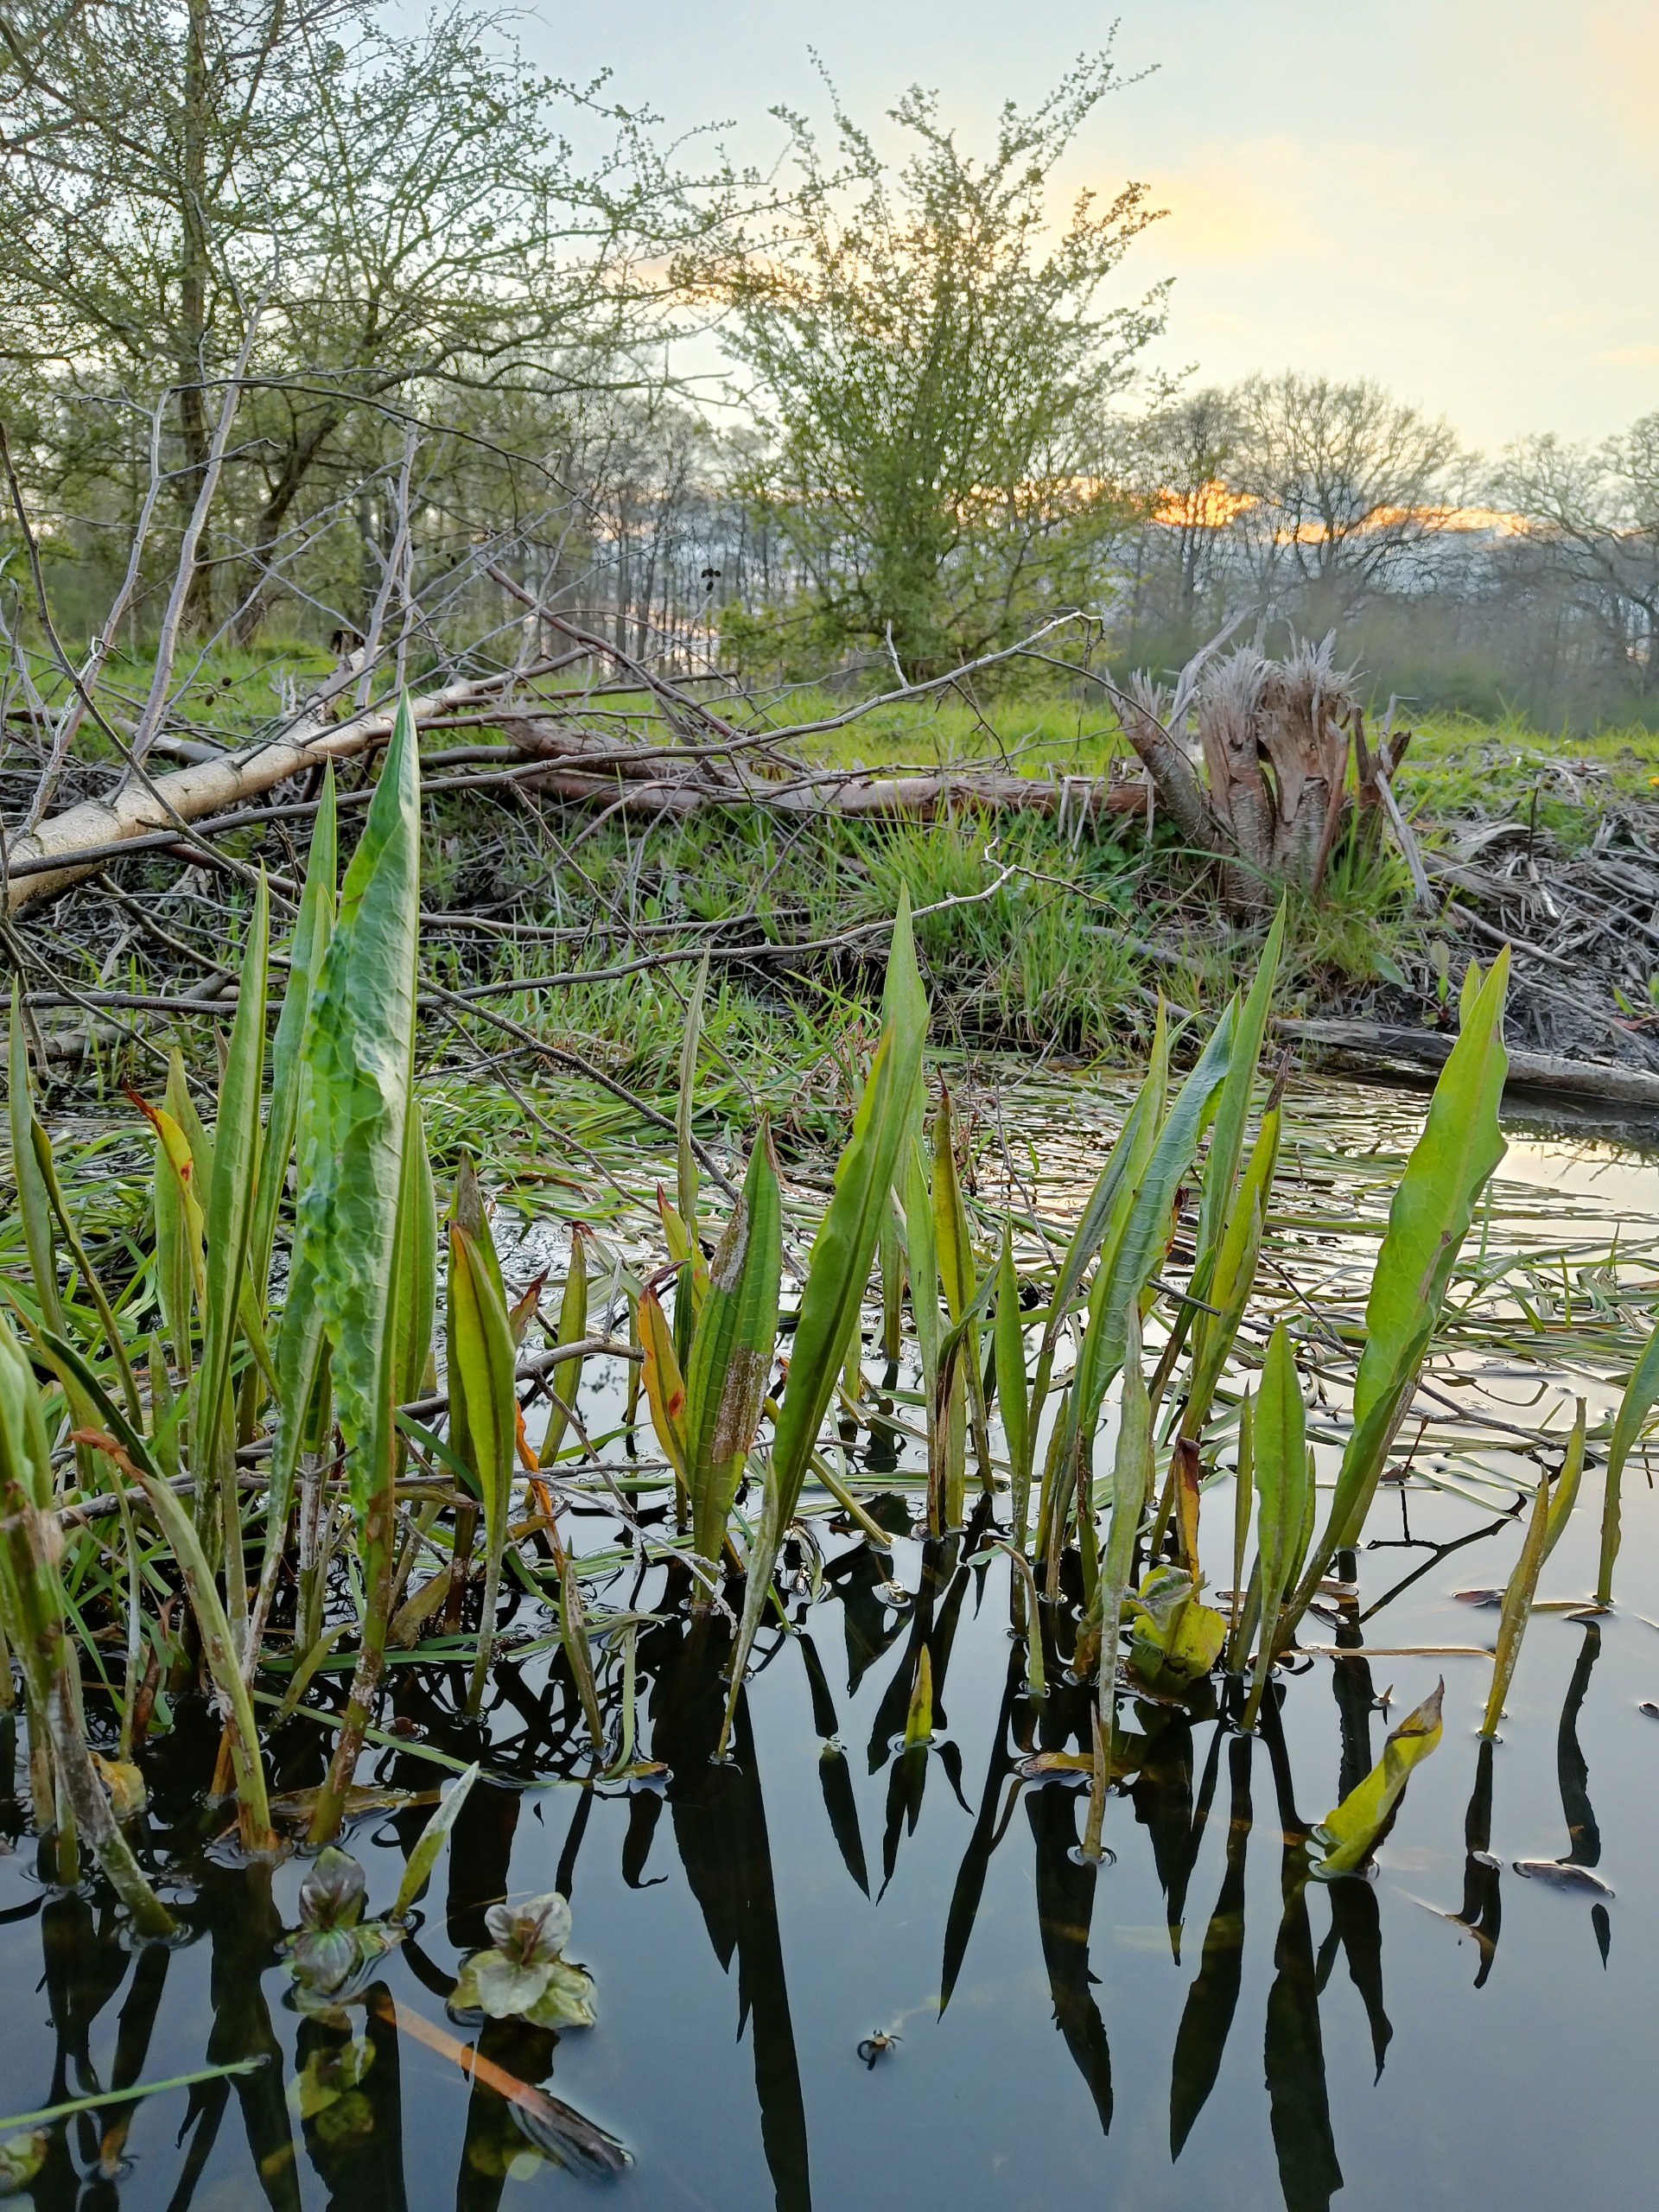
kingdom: Plantae
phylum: Tracheophyta
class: Magnoliopsida
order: Caryophyllales
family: Polygonaceae
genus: Rumex
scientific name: Rumex hydrolapathum
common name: Vand-skræppe
